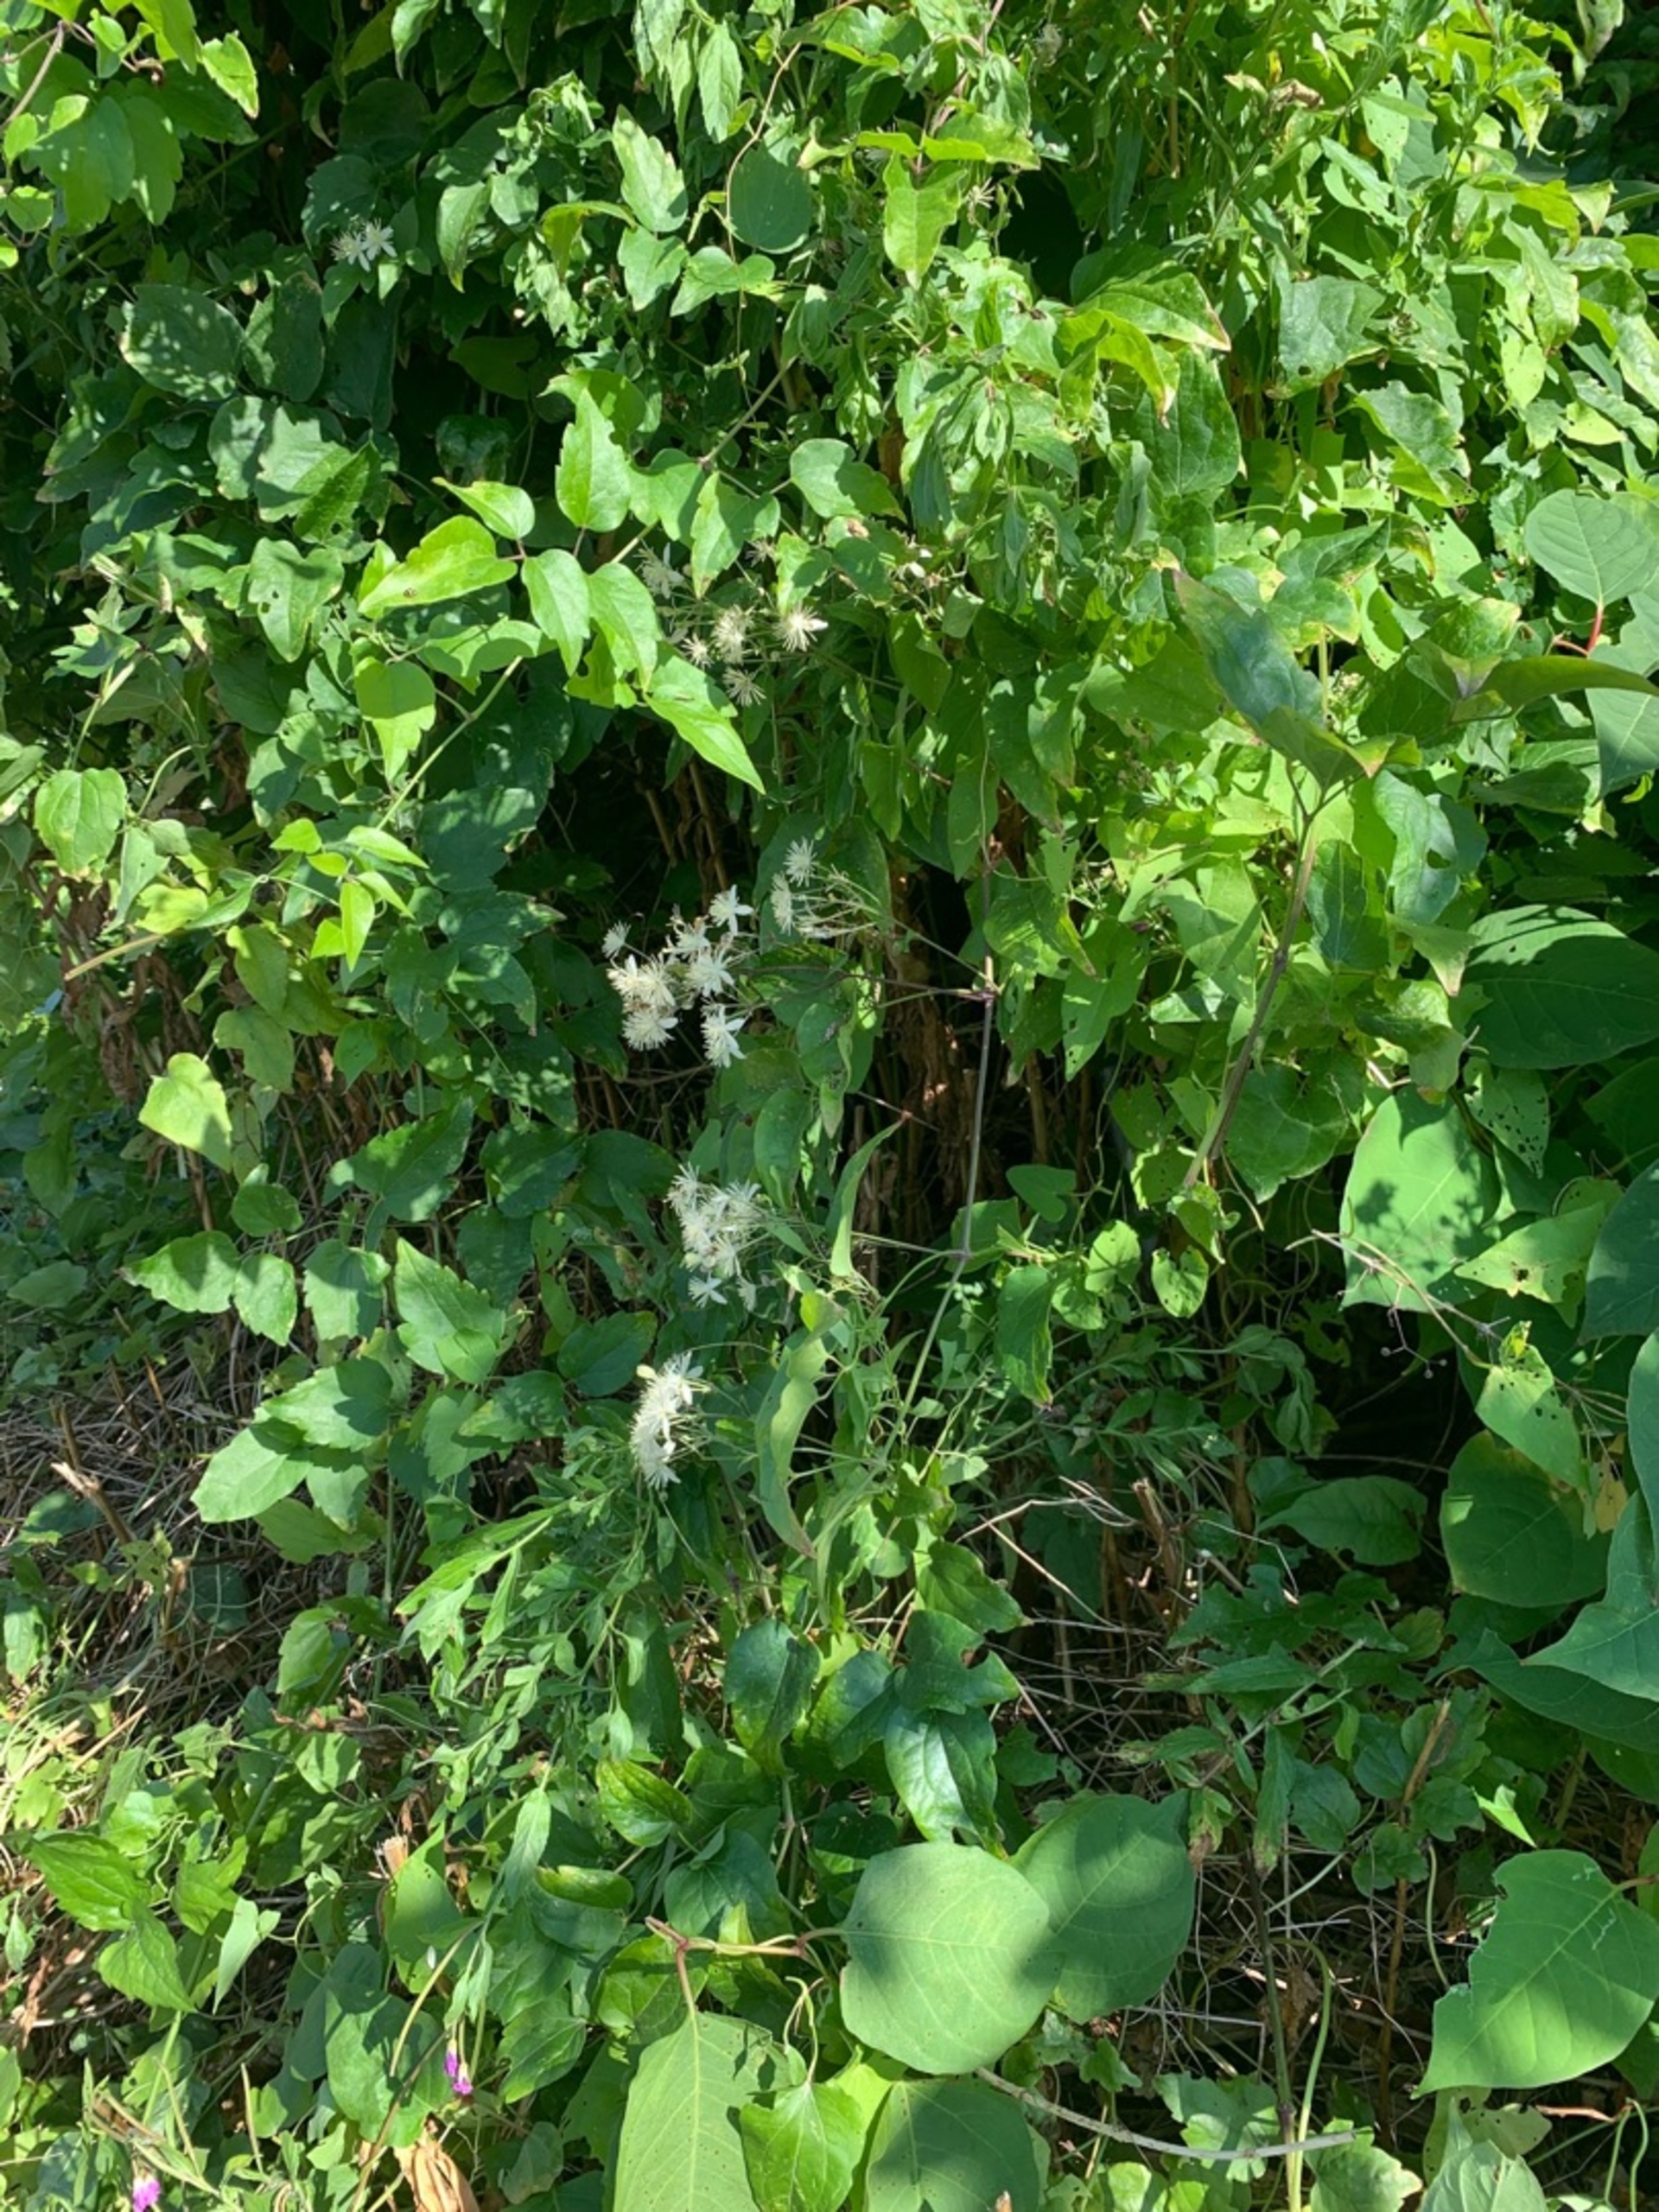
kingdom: Plantae
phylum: Tracheophyta
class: Magnoliopsida
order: Ranunculales
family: Ranunculaceae
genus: Clematis
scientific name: Clematis vitalba
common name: Skovranke
